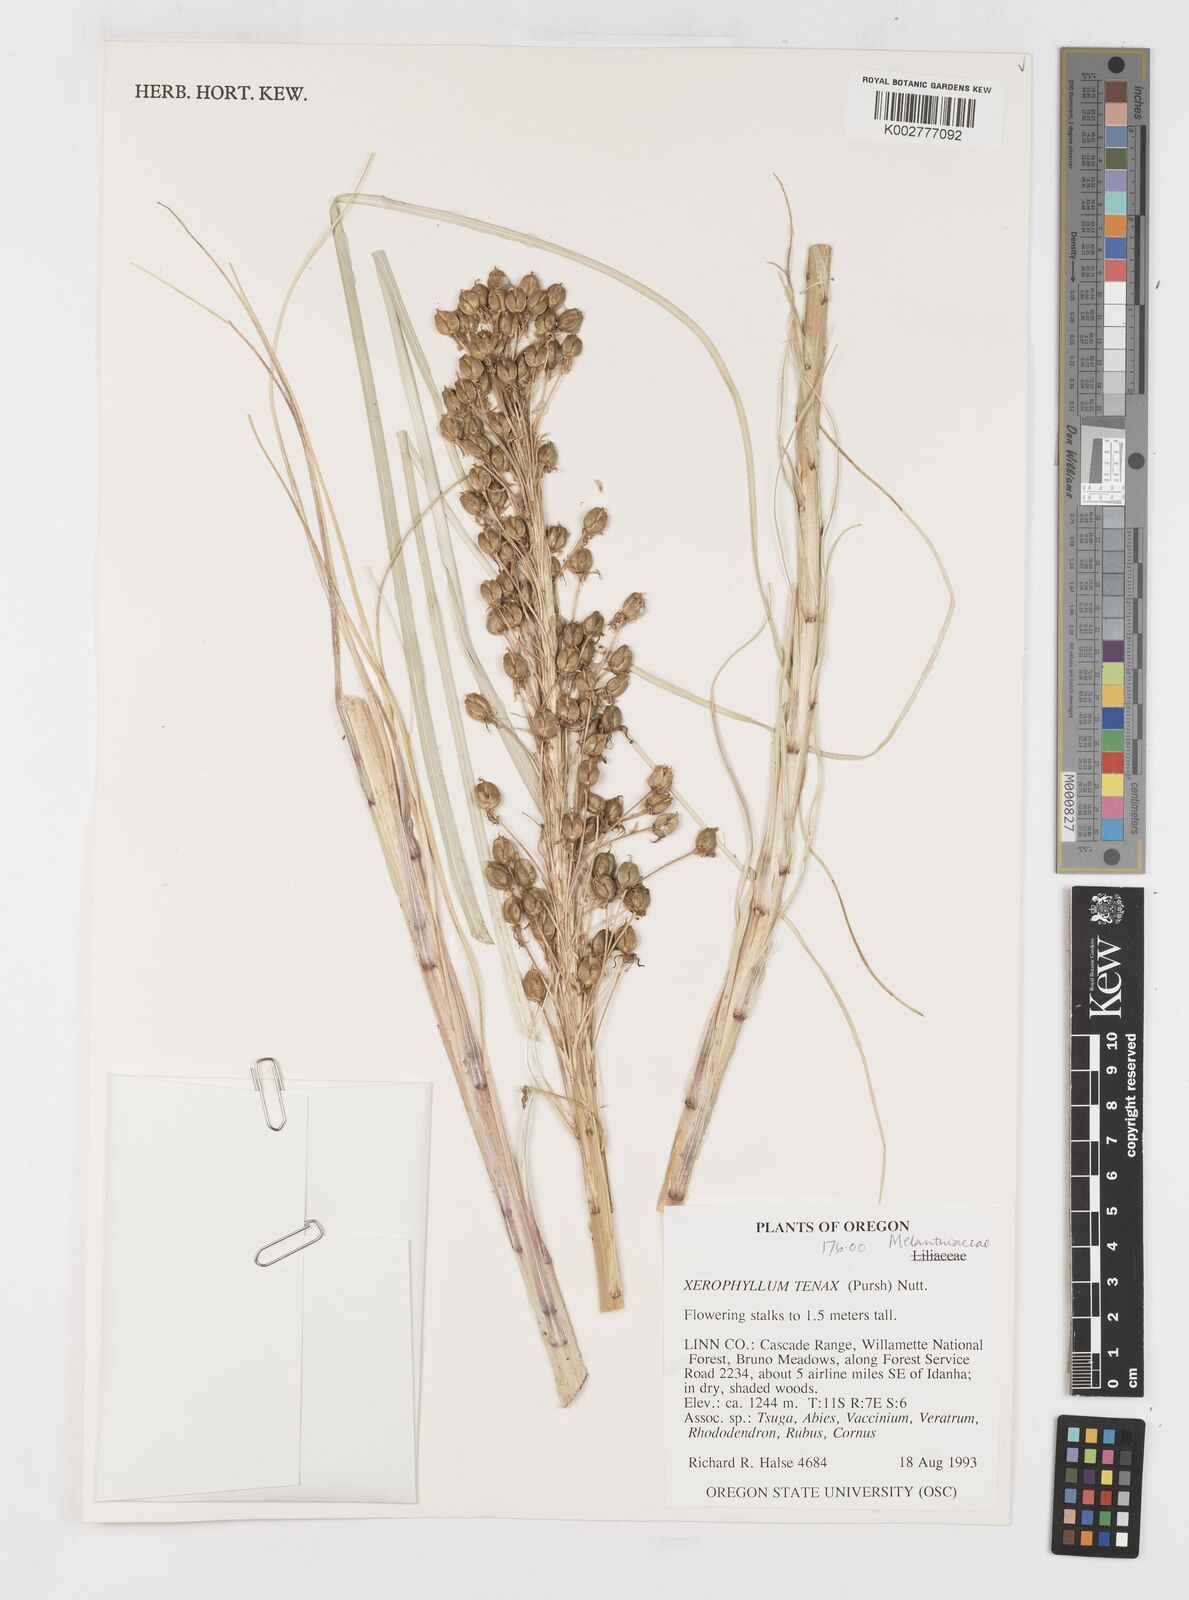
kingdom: Plantae
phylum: Tracheophyta
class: Liliopsida
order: Liliales
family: Melanthiaceae
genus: Xerophyllum
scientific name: Xerophyllum tenax
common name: Bear-grass
